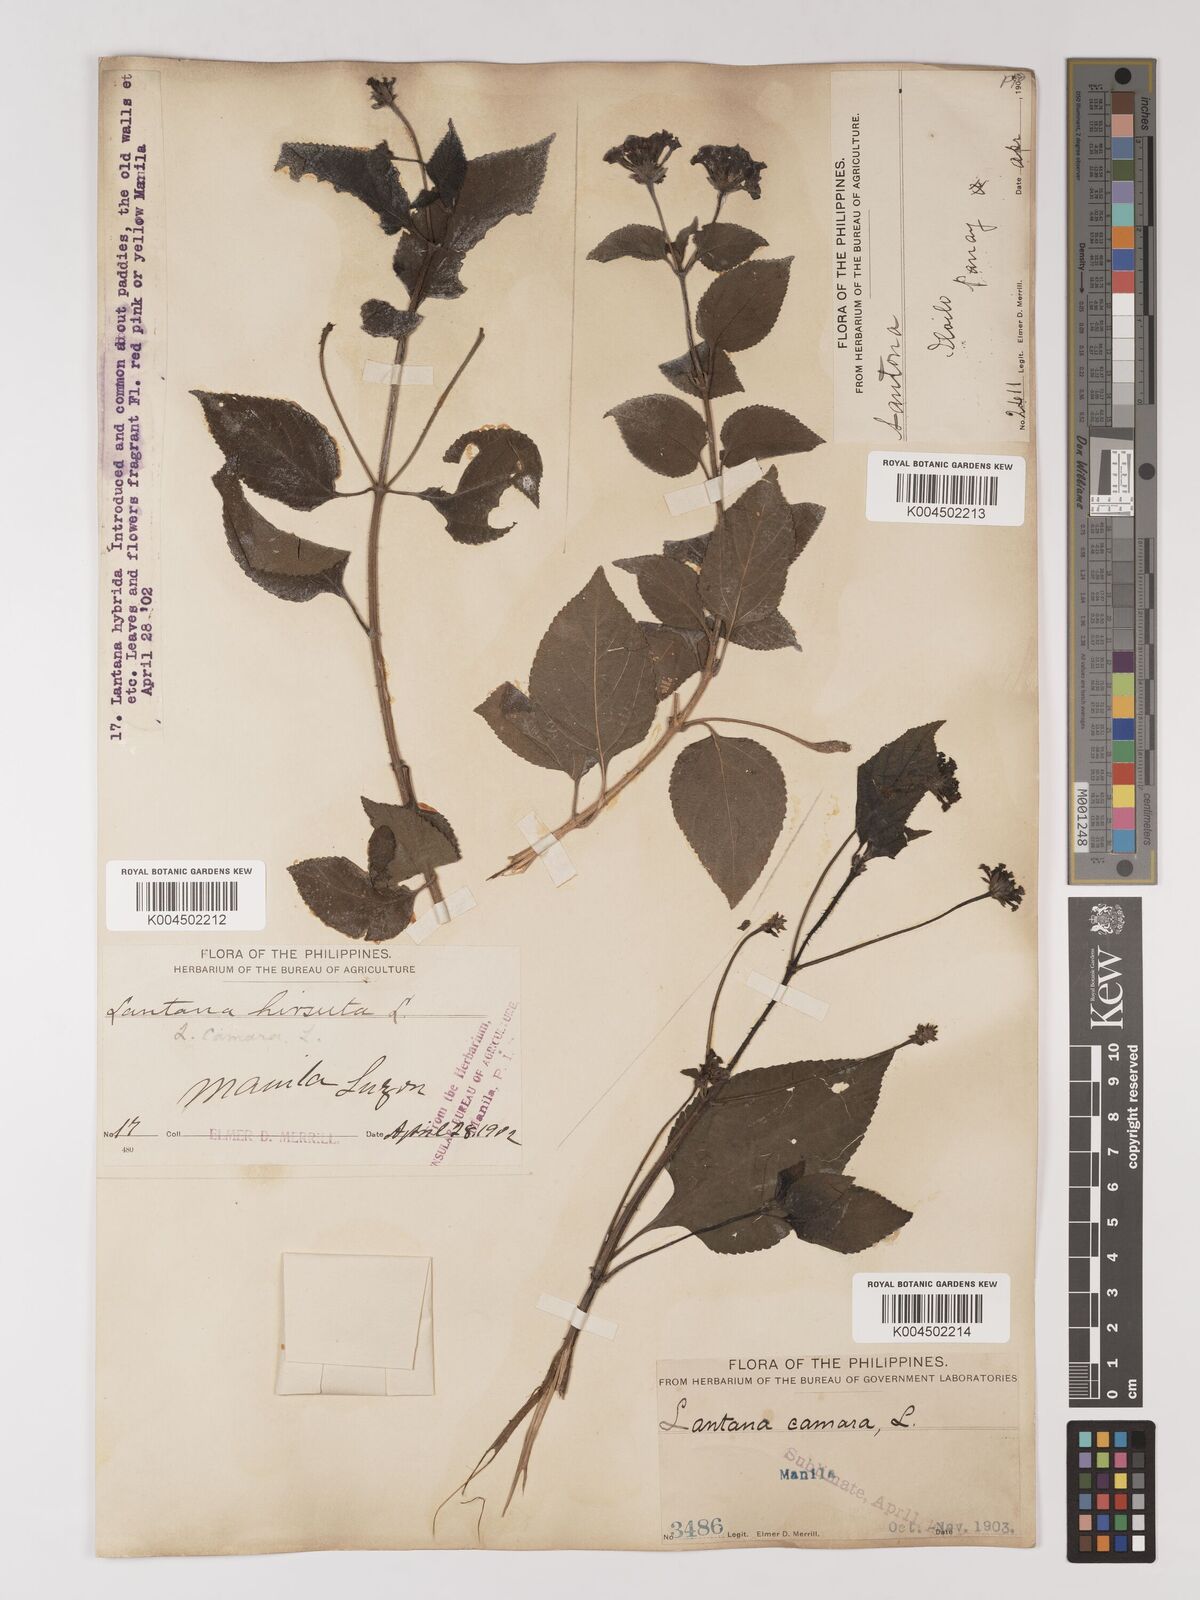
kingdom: Plantae
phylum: Tracheophyta
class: Magnoliopsida
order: Lamiales
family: Verbenaceae
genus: Lantana
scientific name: Lantana
